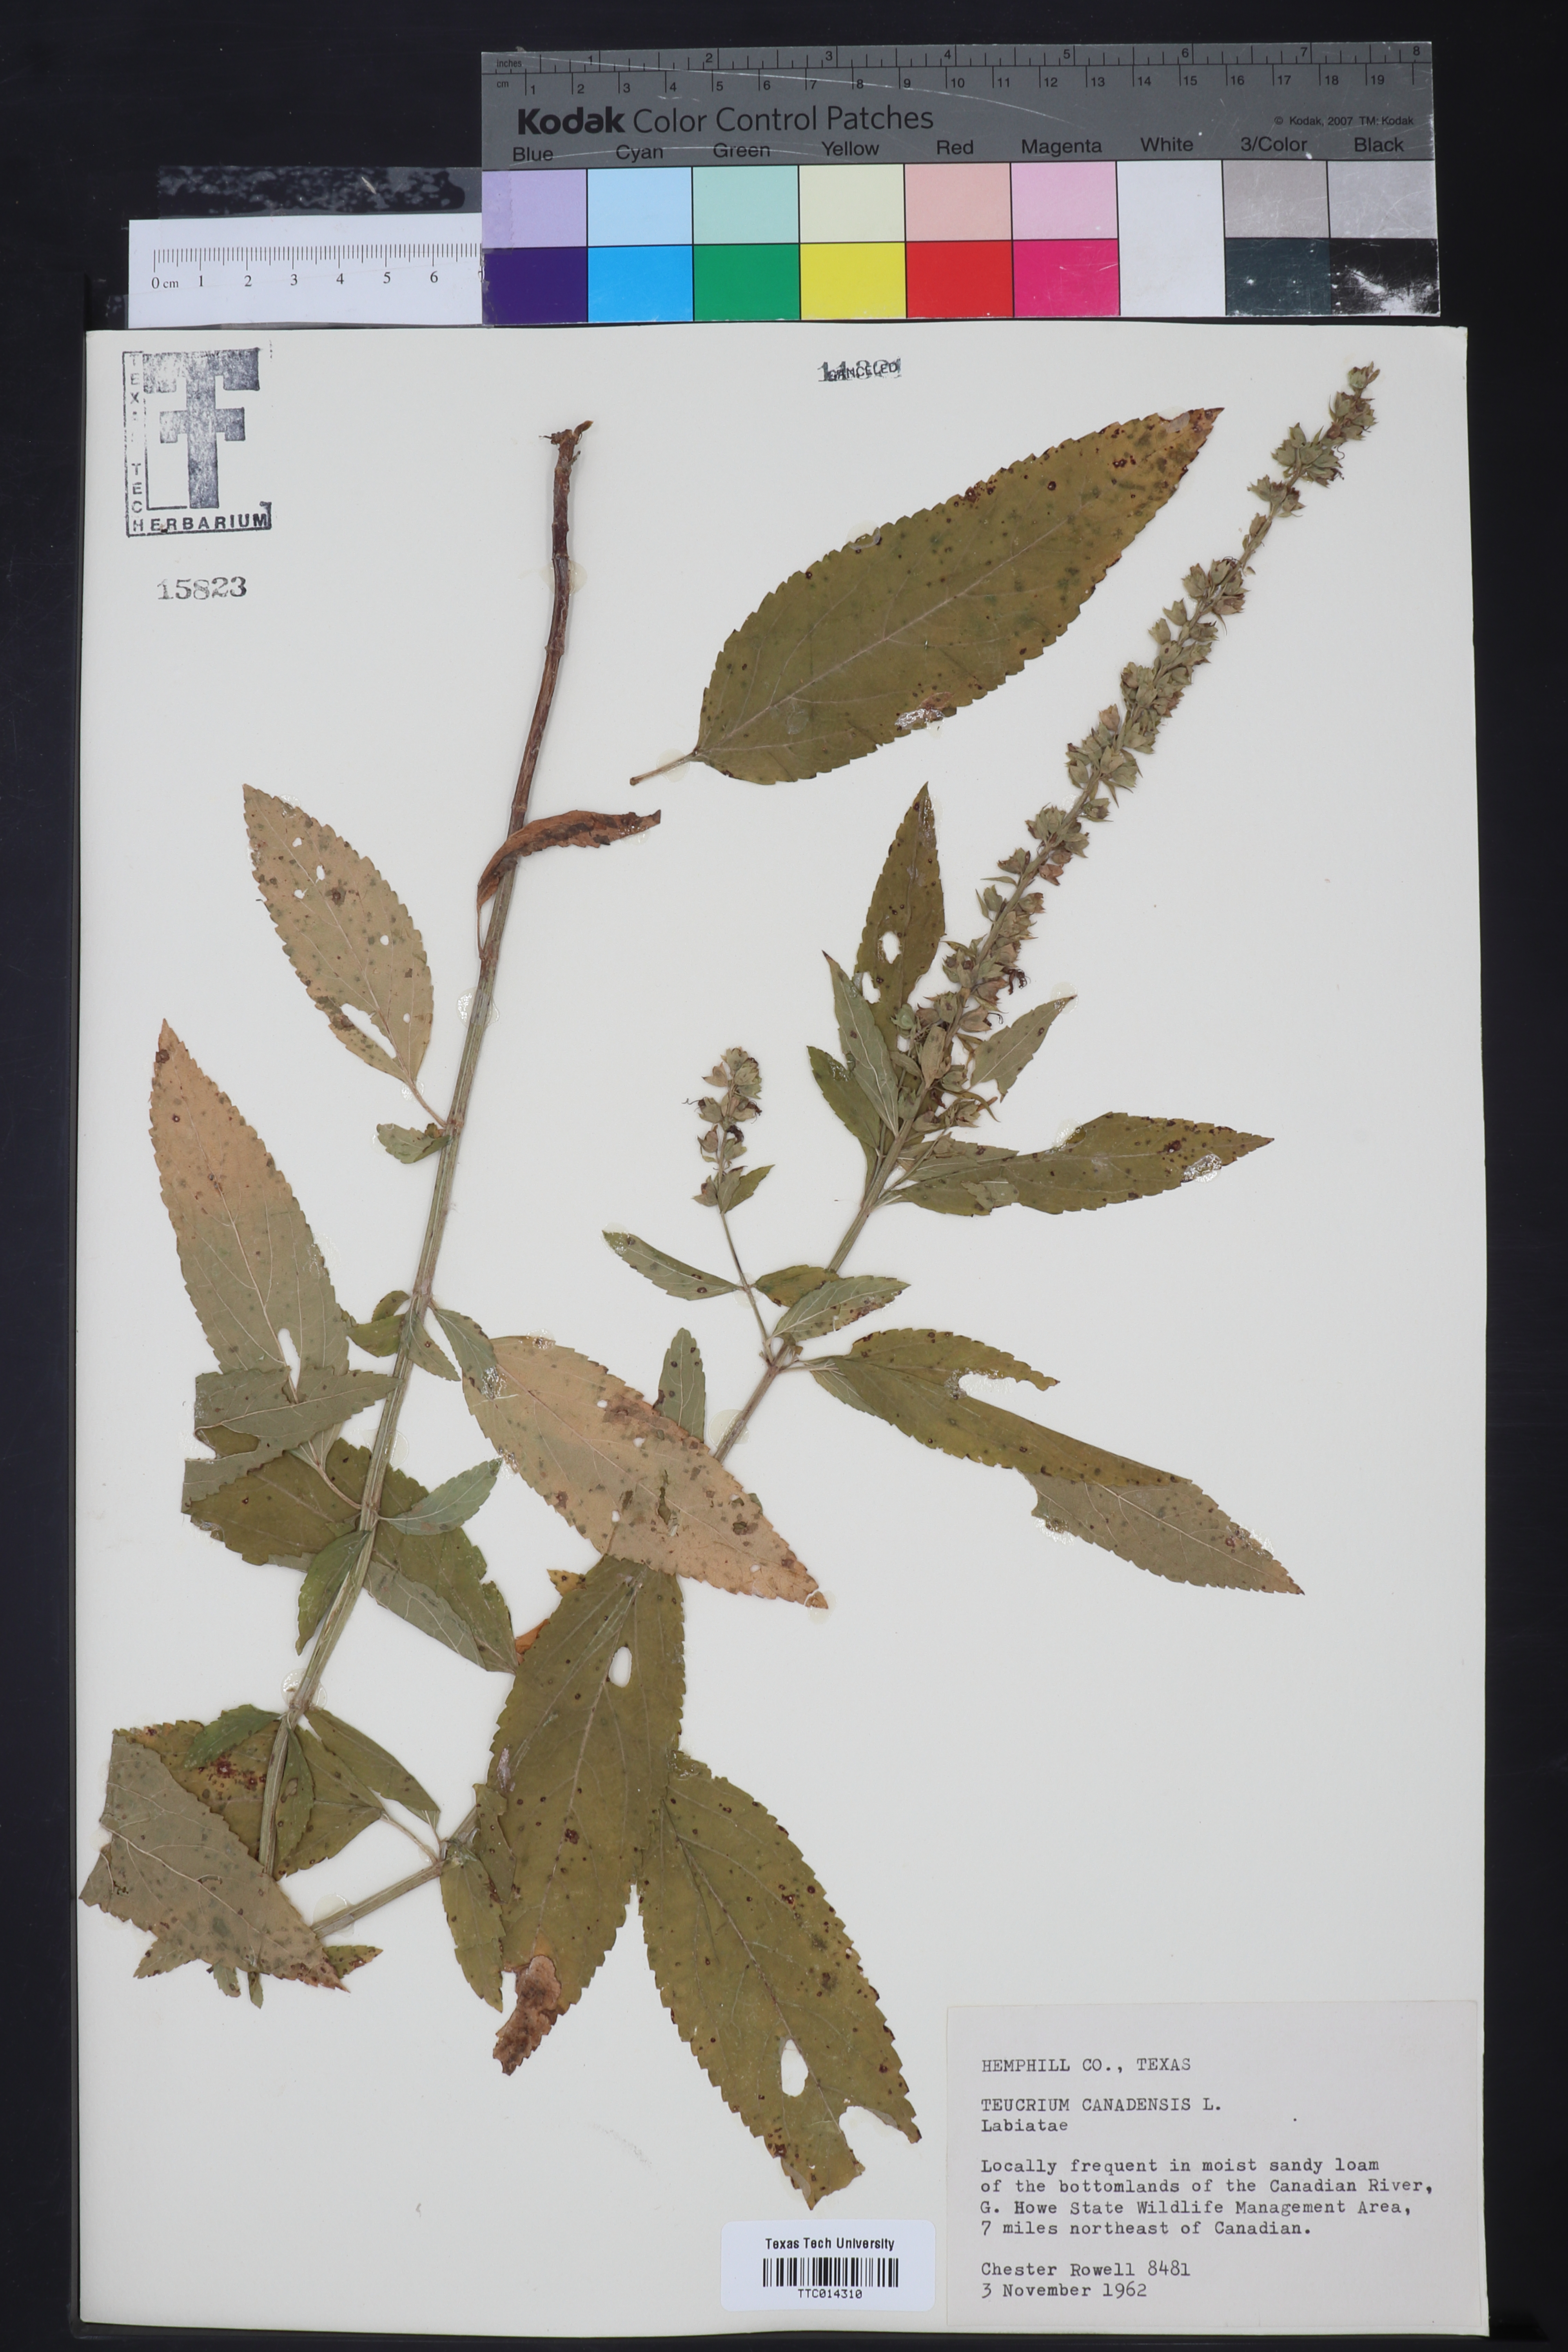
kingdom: Plantae
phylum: Tracheophyta
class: Magnoliopsida
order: Lamiales
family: Lamiaceae
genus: Teucrium
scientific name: Teucrium canadense
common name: American germander
